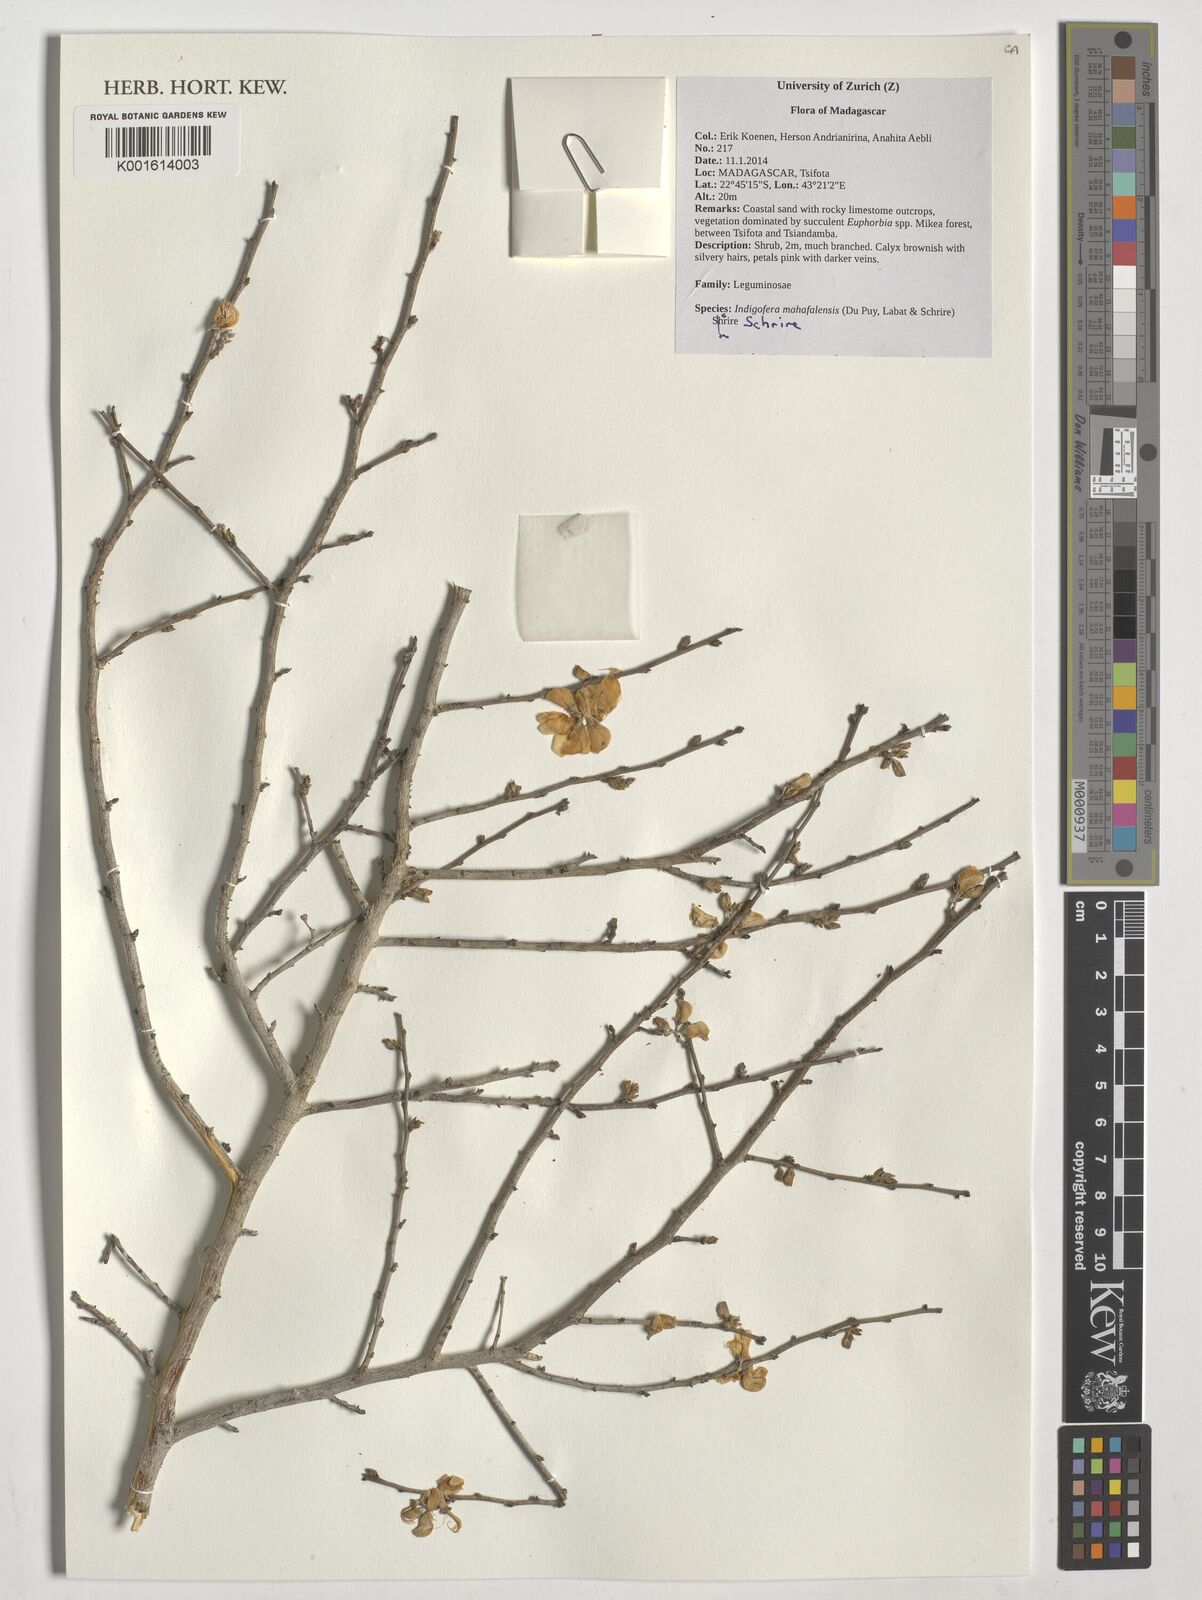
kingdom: Plantae
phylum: Tracheophyta
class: Magnoliopsida
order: Fabales
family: Fabaceae
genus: Indigofera
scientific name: Indigofera mahafalensis
